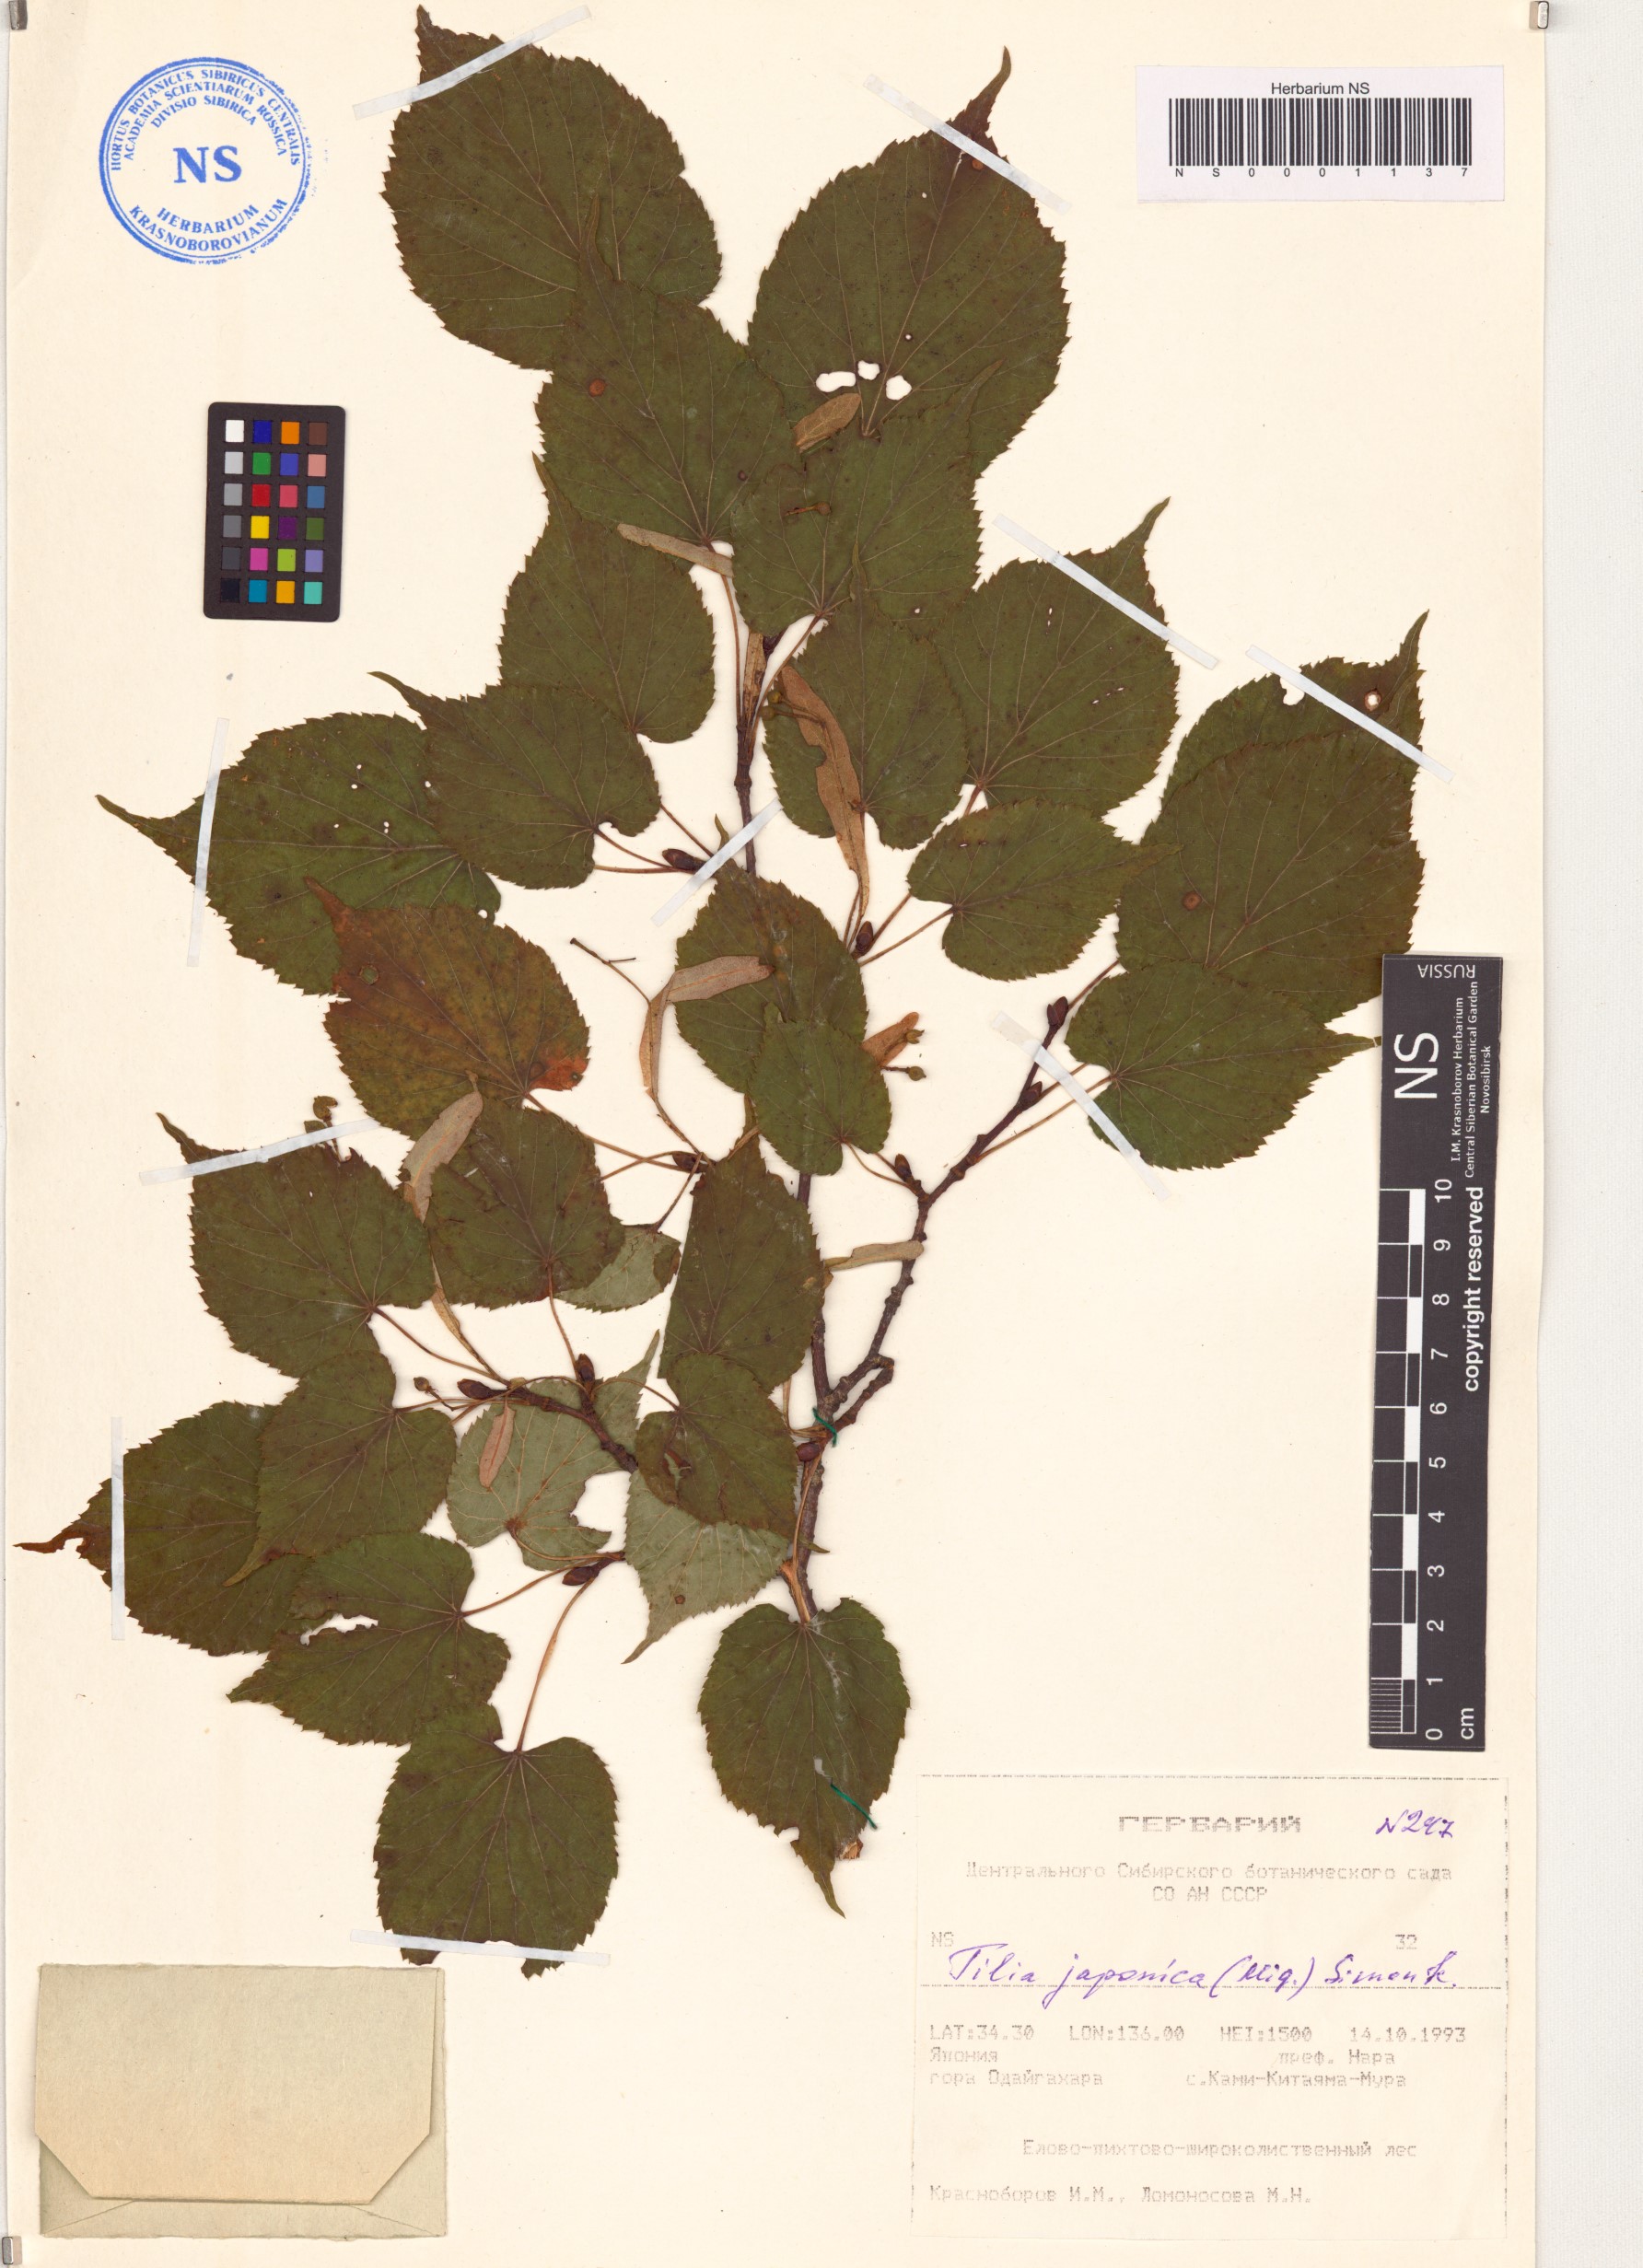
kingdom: Plantae
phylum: Tracheophyta
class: Magnoliopsida
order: Malvales
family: Malvaceae
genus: Tilia
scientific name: Tilia japonica
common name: Japanese lime
